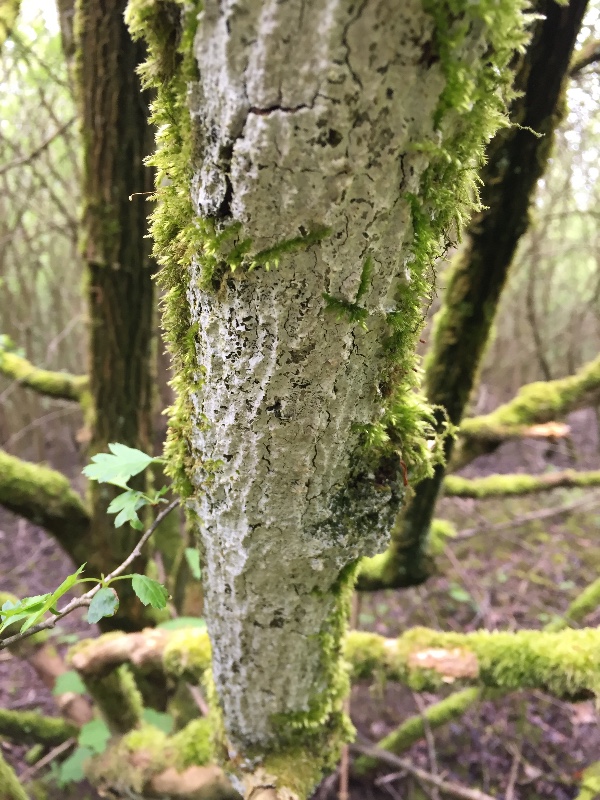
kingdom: Fungi
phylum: Basidiomycota
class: Agaricomycetes
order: Corticiales
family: Corticiaceae
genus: Lyomyces
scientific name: Lyomyces sambuci
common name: almindelig hyldehinde
